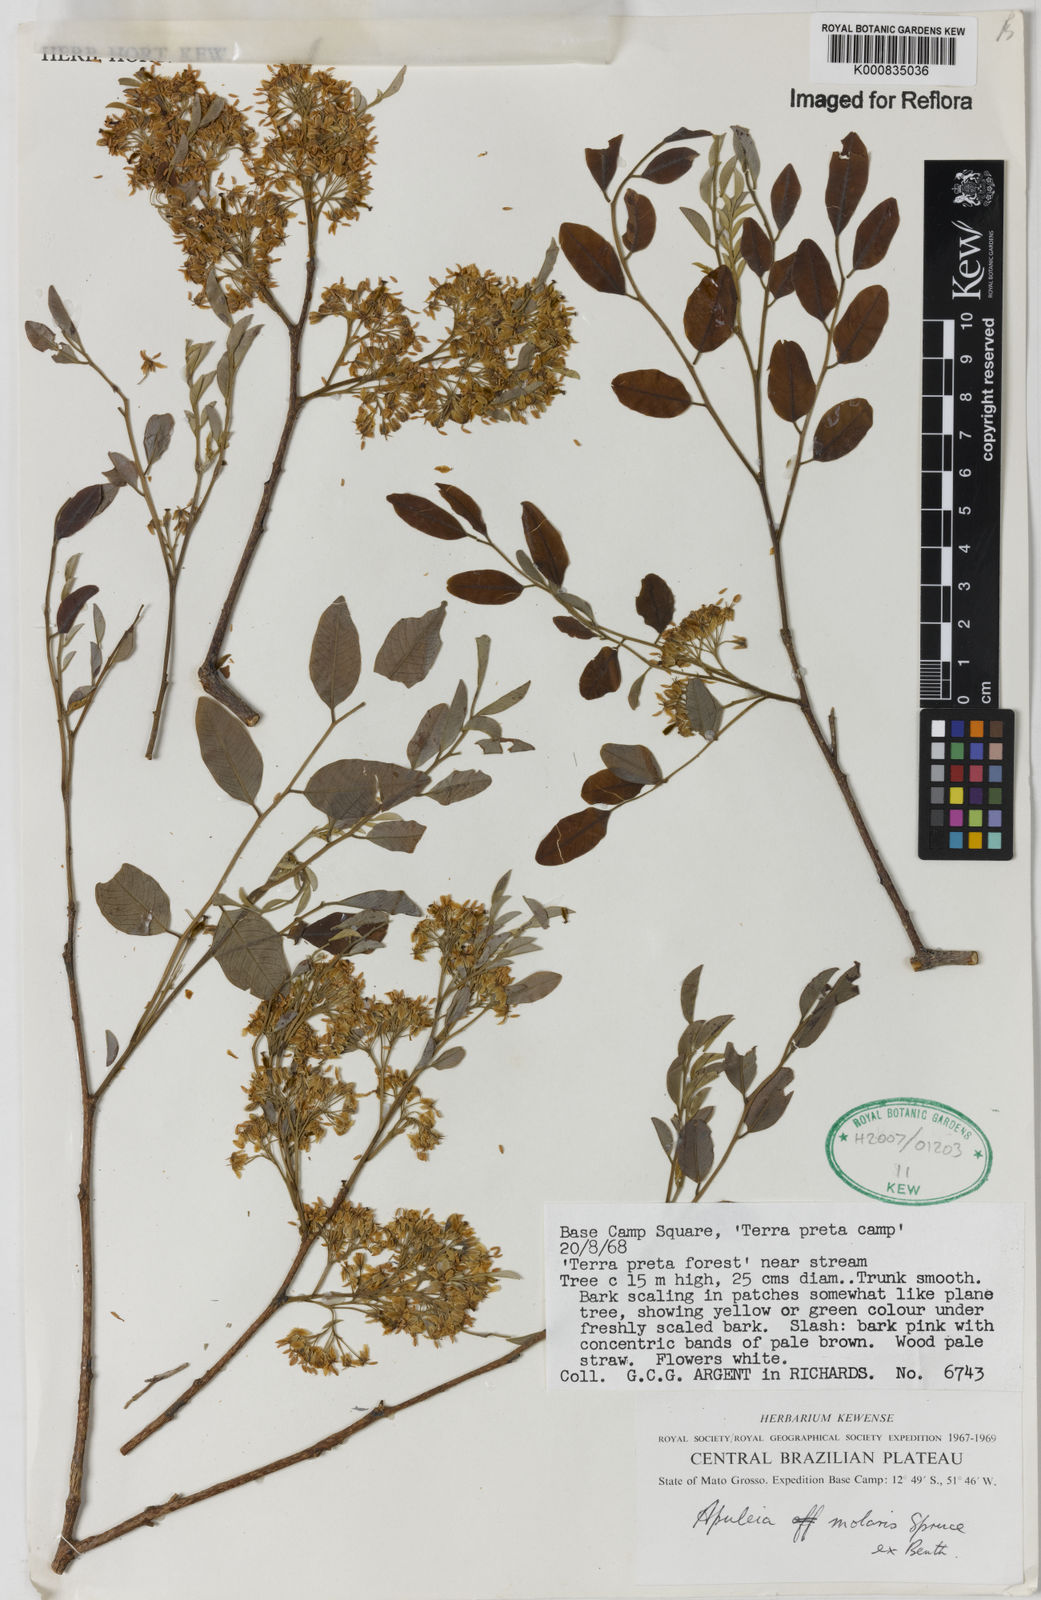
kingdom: Plantae
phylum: Tracheophyta
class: Magnoliopsida
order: Fabales
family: Fabaceae
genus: Apuleia
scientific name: Apuleia leiocarpa
